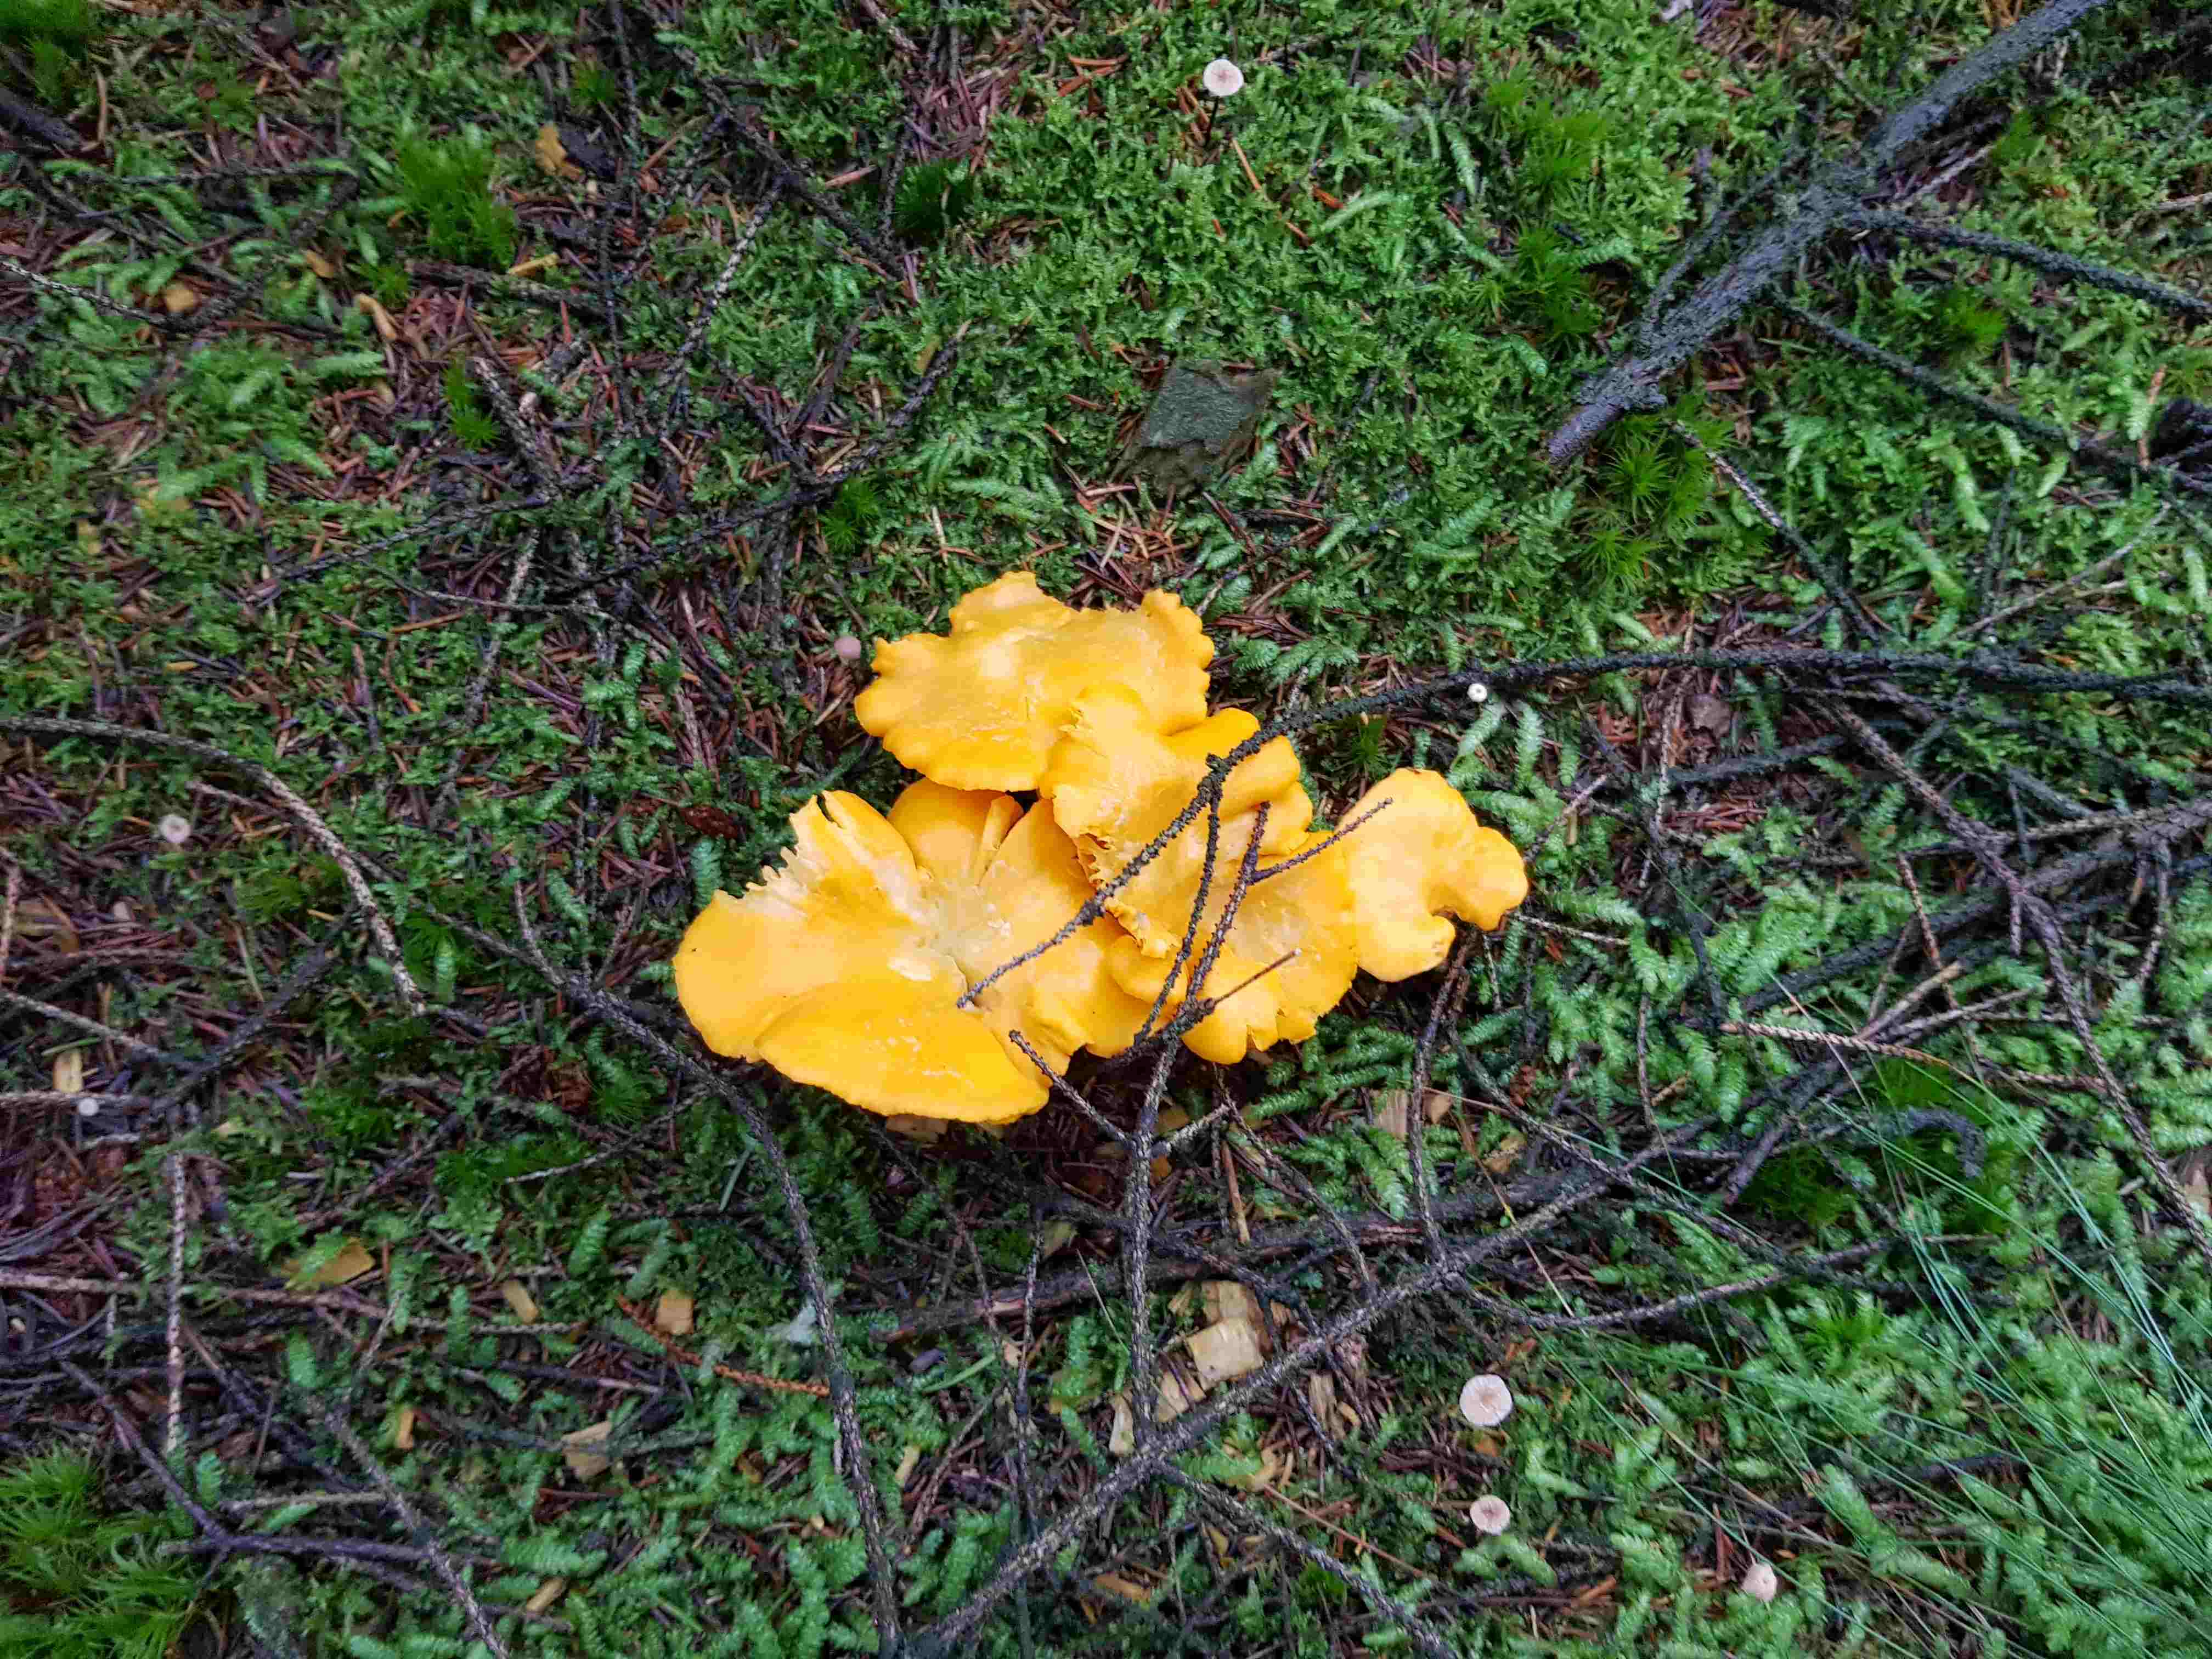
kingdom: Fungi
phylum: Basidiomycota
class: Agaricomycetes
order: Cantharellales
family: Hydnaceae
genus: Cantharellus
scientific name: Cantharellus cibarius
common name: almindelig kantarel
